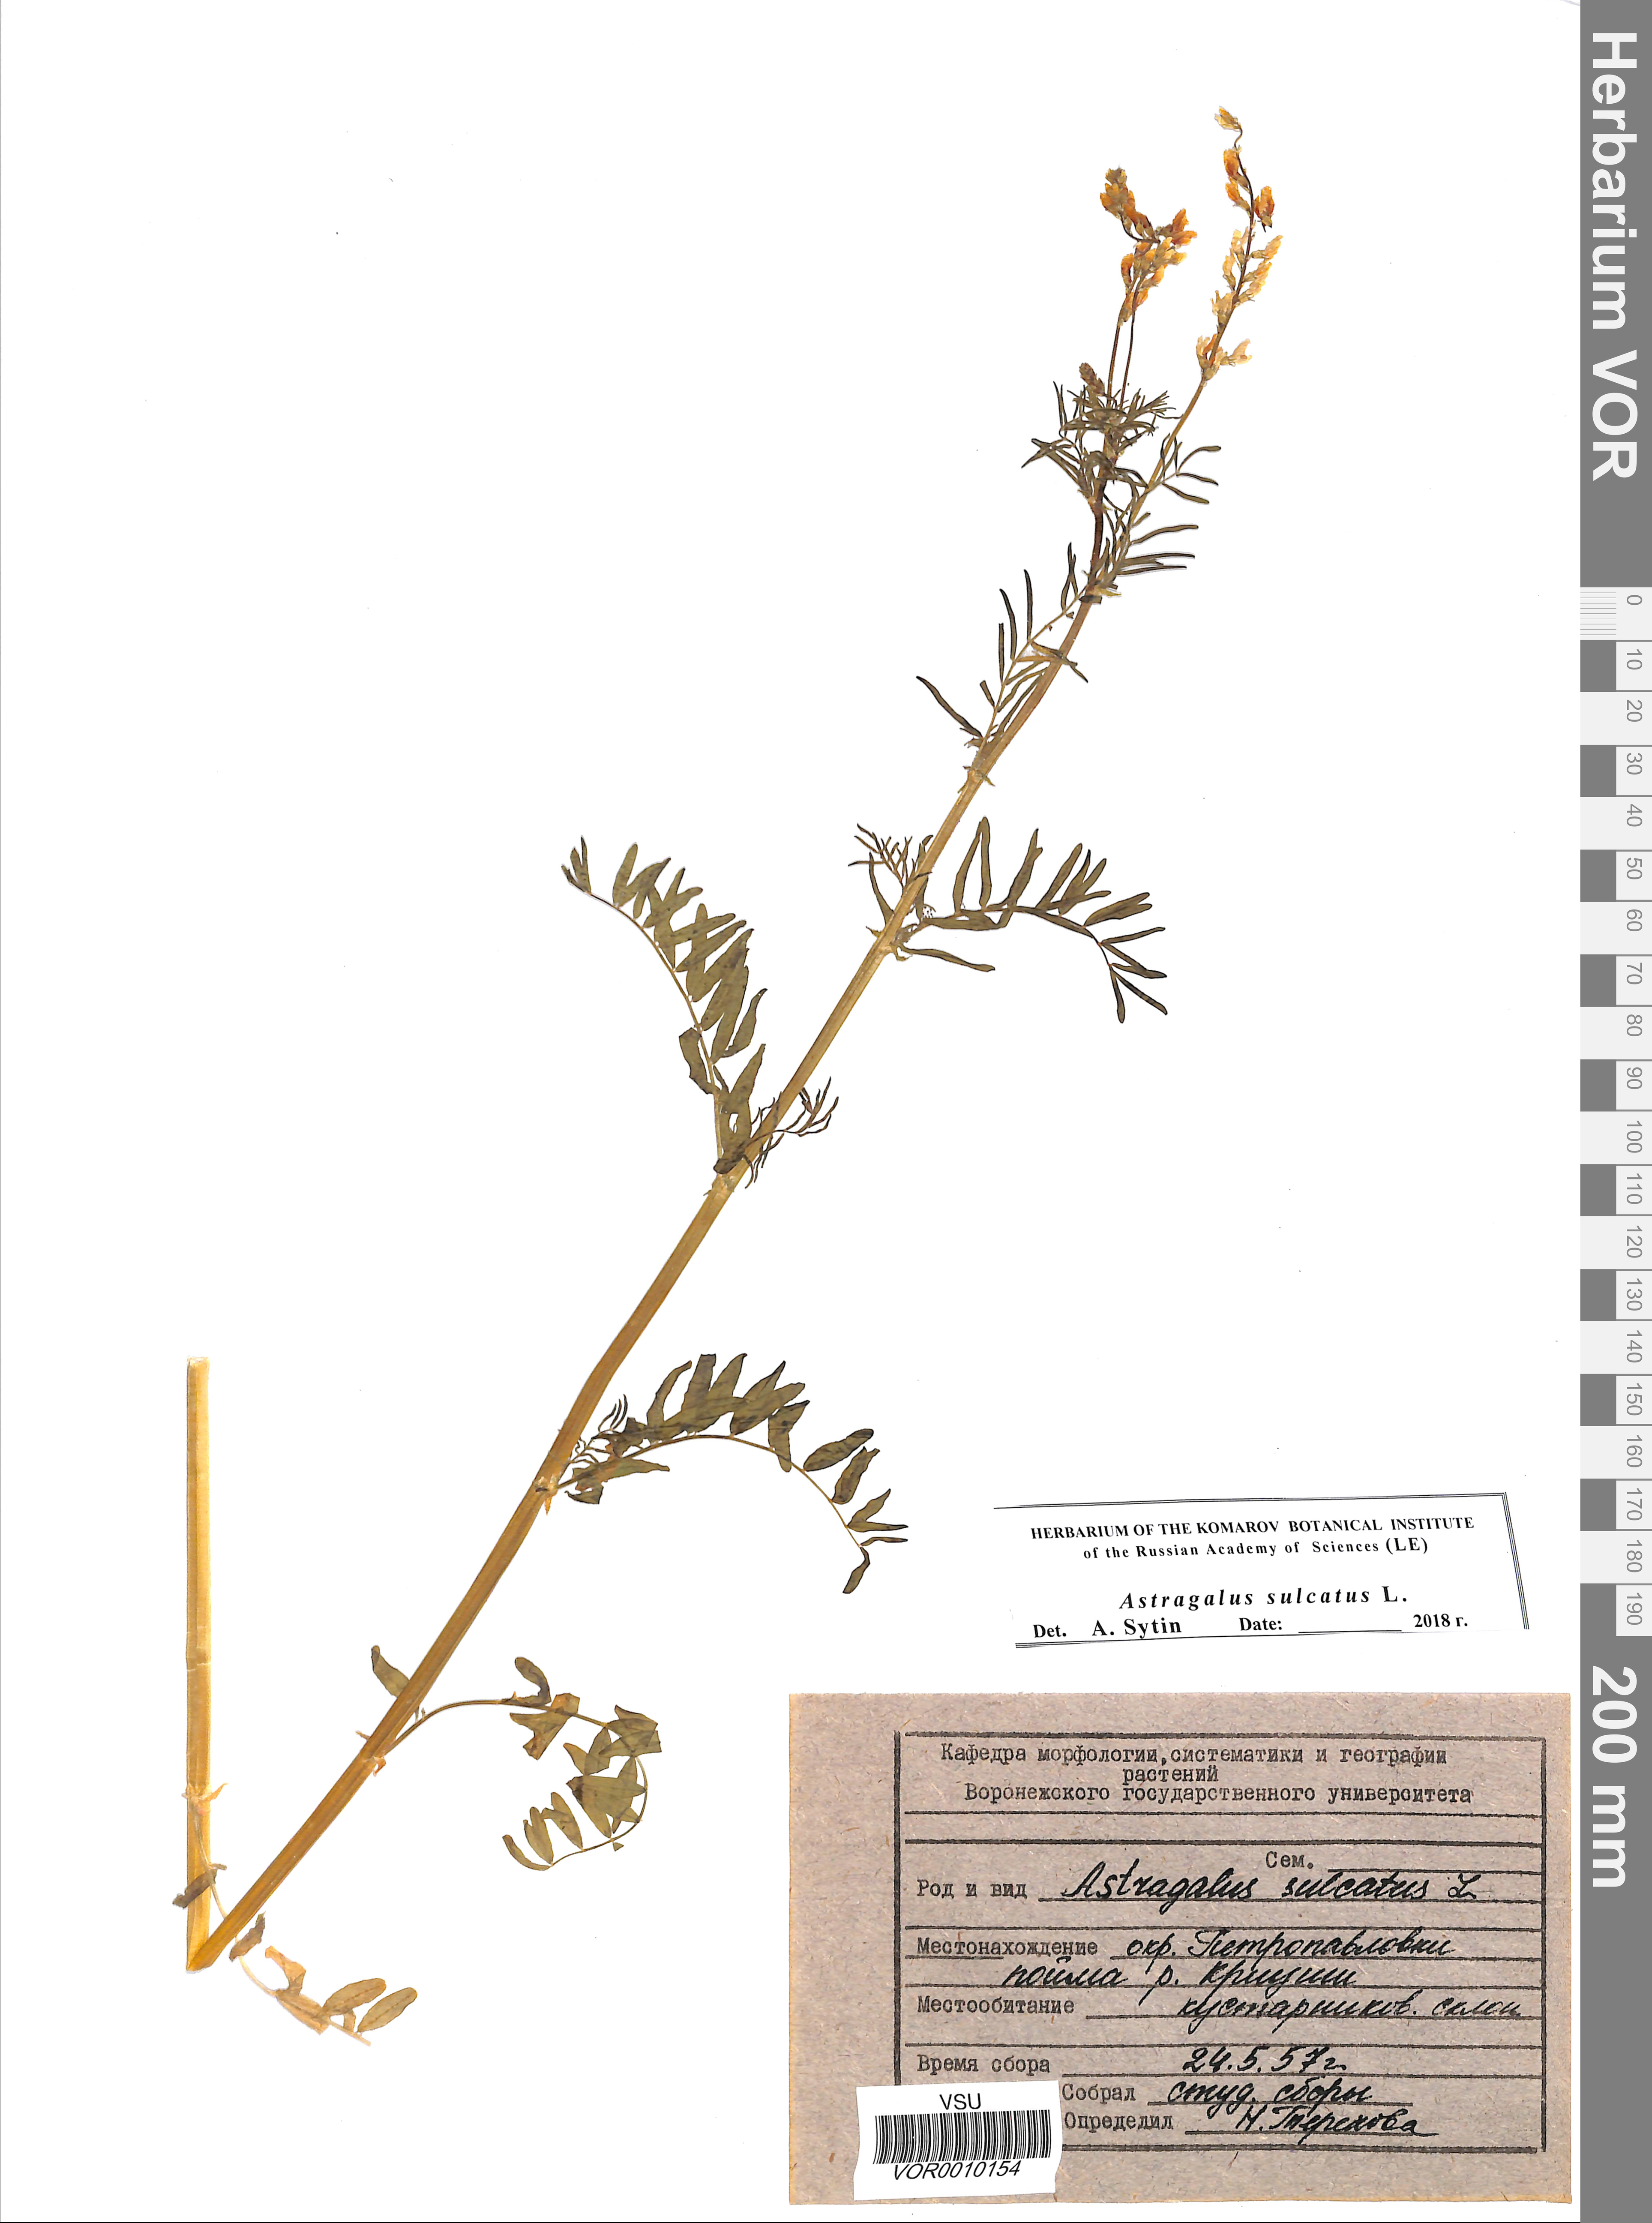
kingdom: Plantae
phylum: Tracheophyta
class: Magnoliopsida
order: Fabales
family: Fabaceae
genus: Astragalus
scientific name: Astragalus sulcatus
